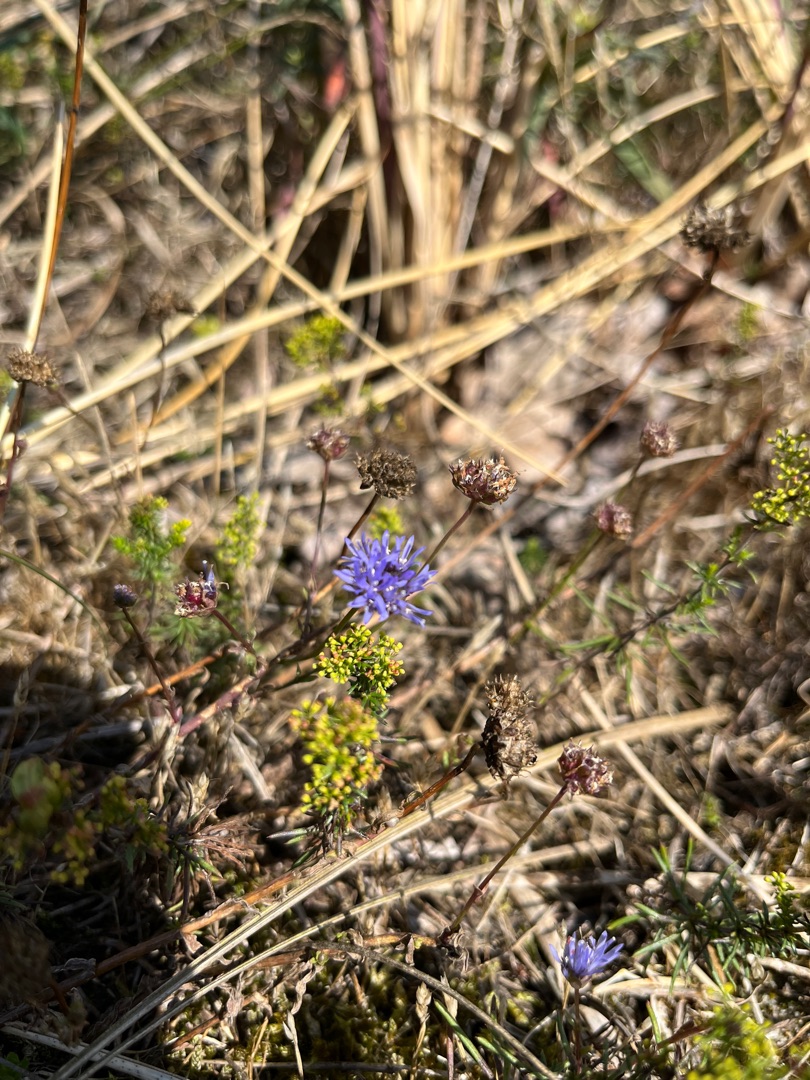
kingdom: Plantae
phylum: Tracheophyta
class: Magnoliopsida
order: Asterales
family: Campanulaceae
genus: Jasione
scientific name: Jasione montana
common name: Blåmunke
